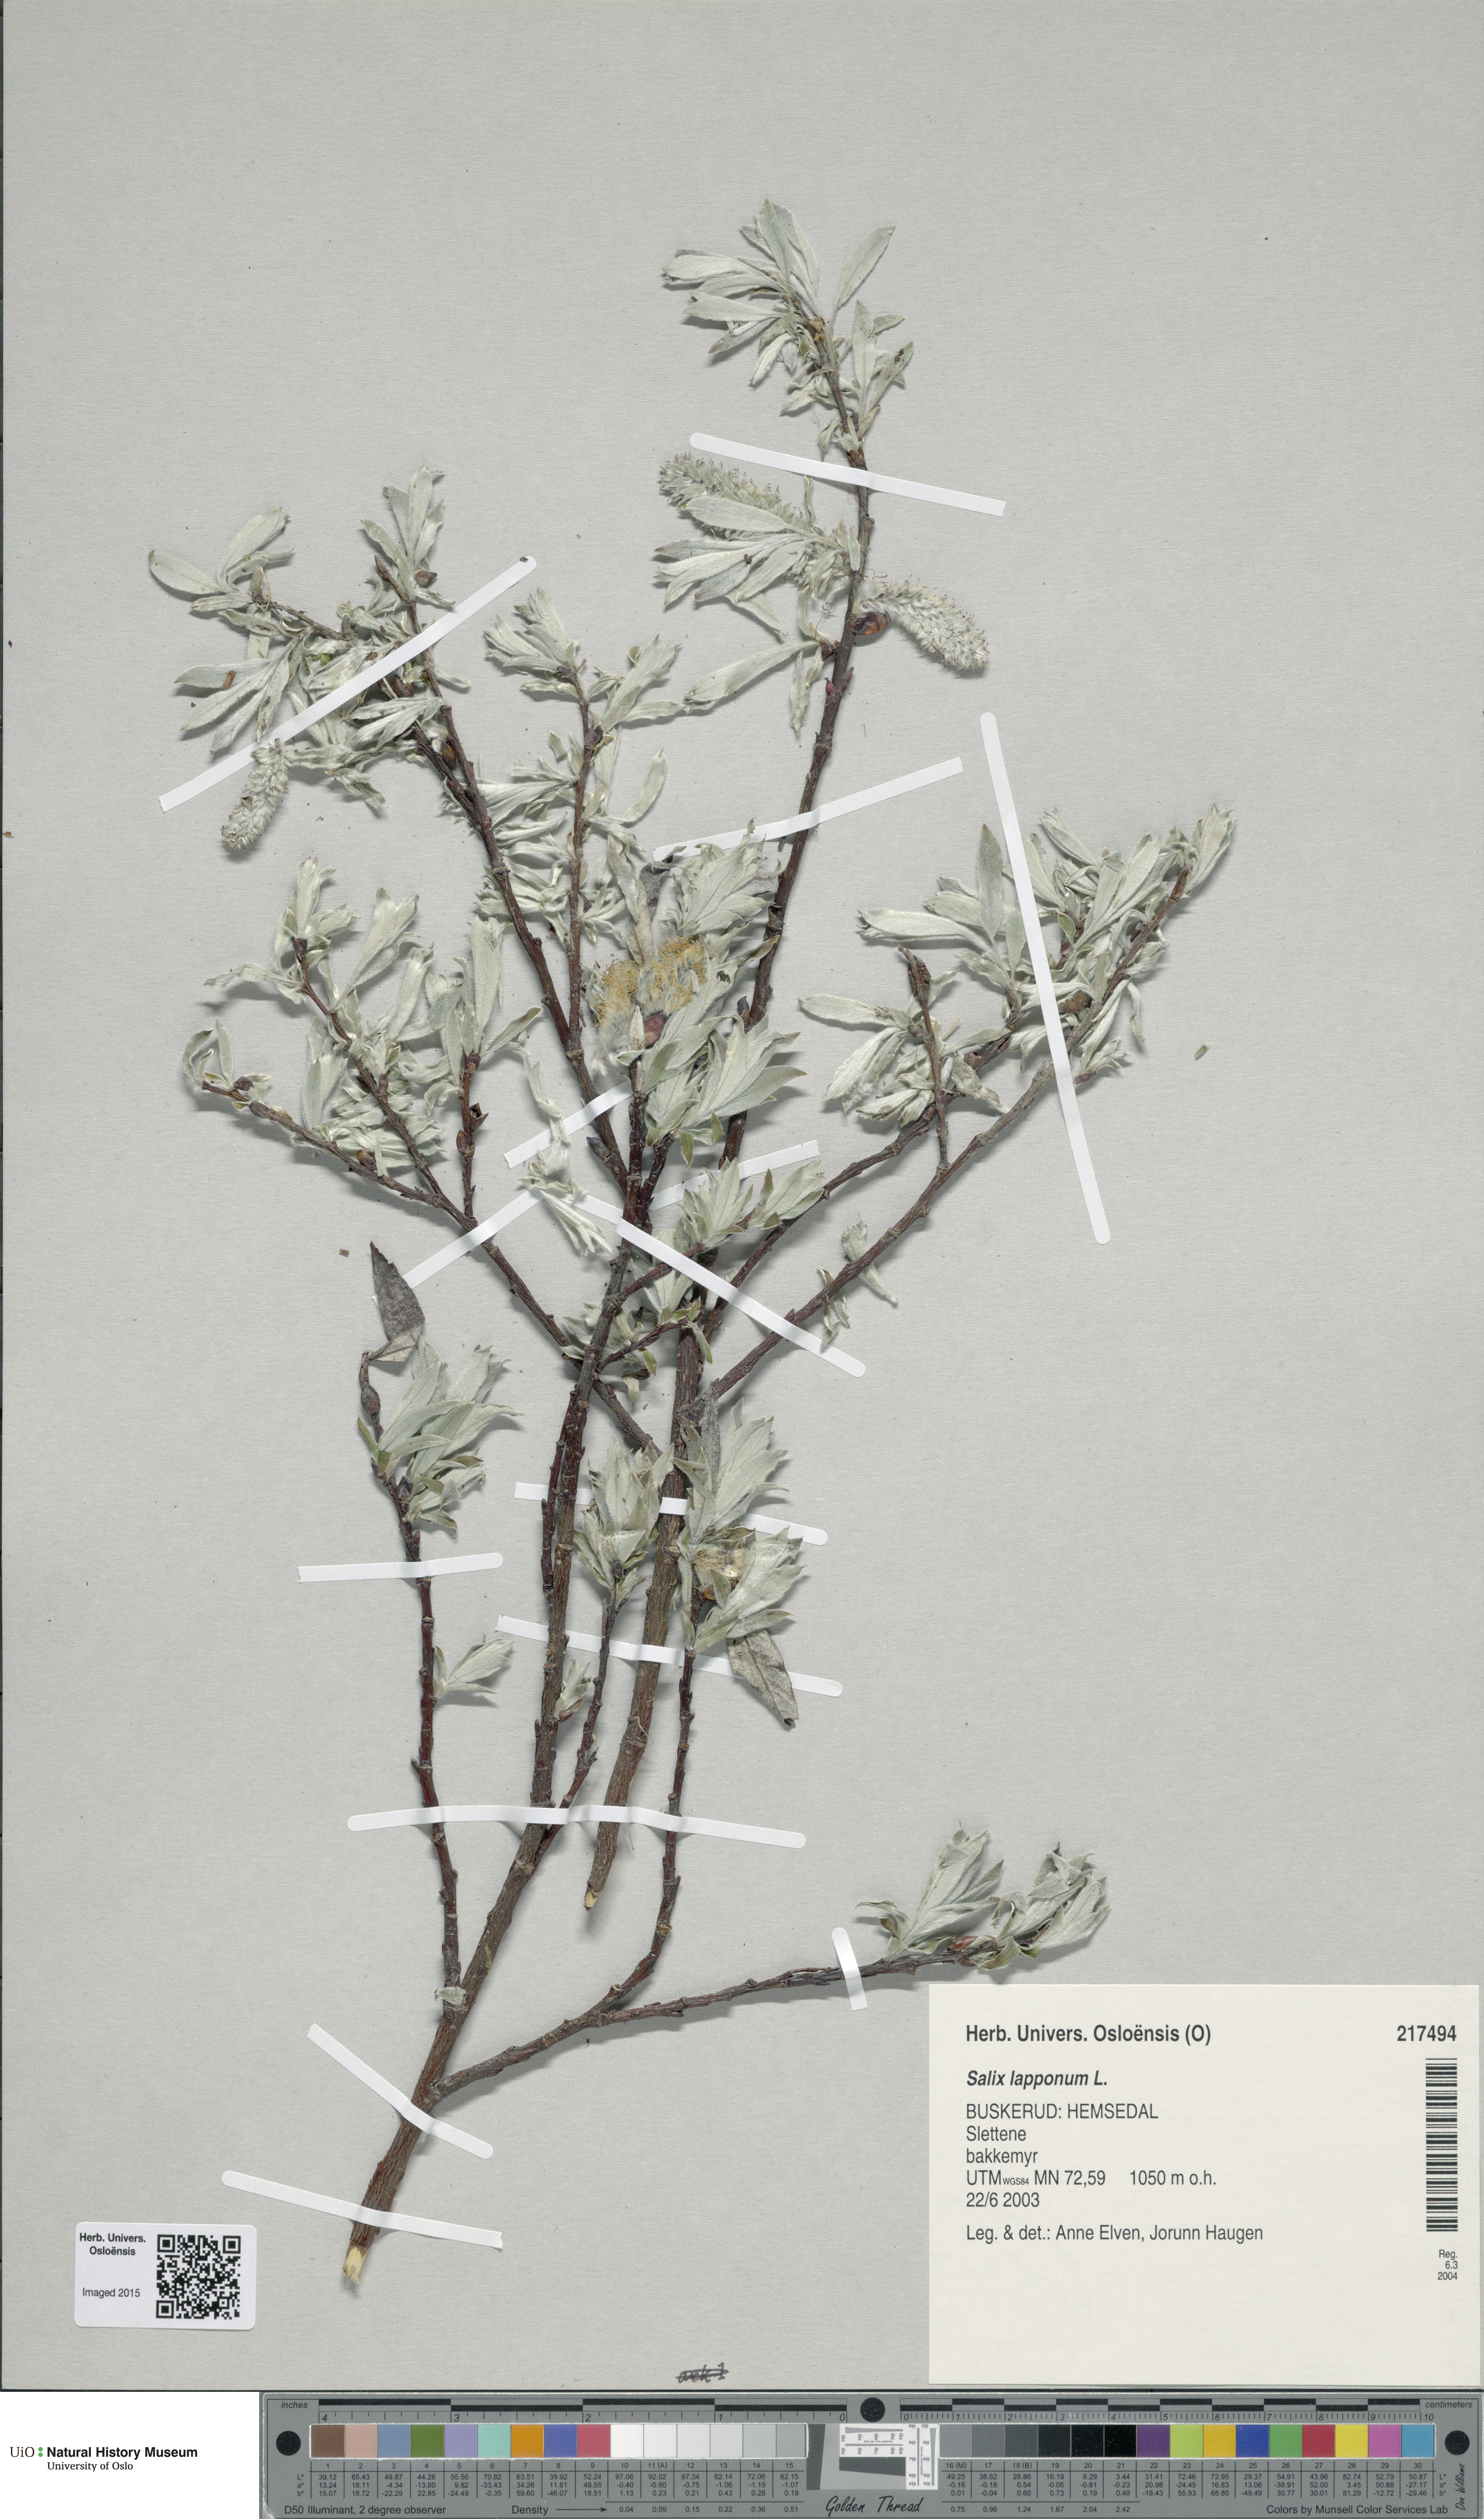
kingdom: Plantae
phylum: Tracheophyta
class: Magnoliopsida
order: Malpighiales
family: Salicaceae
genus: Salix
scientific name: Salix lapponum
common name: Downy willow
